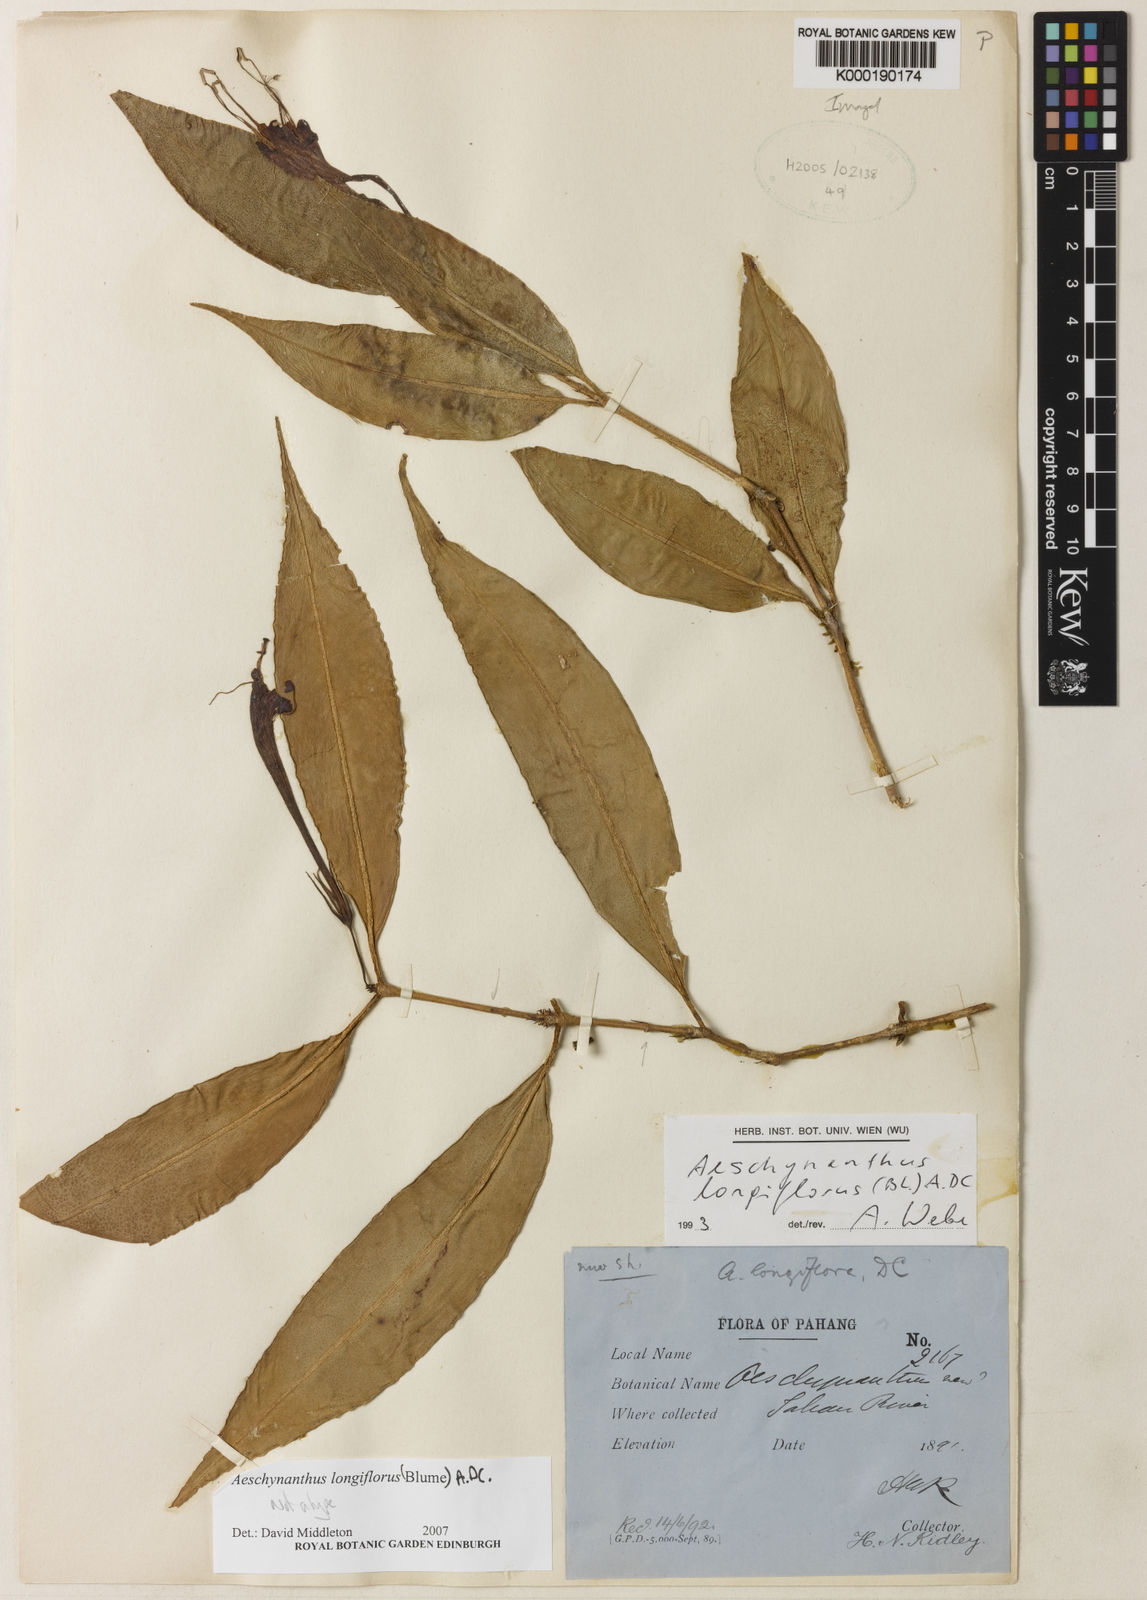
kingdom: Plantae
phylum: Tracheophyta
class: Magnoliopsida
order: Lamiales
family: Gesneriaceae
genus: Aeschynanthus
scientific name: Aeschynanthus
